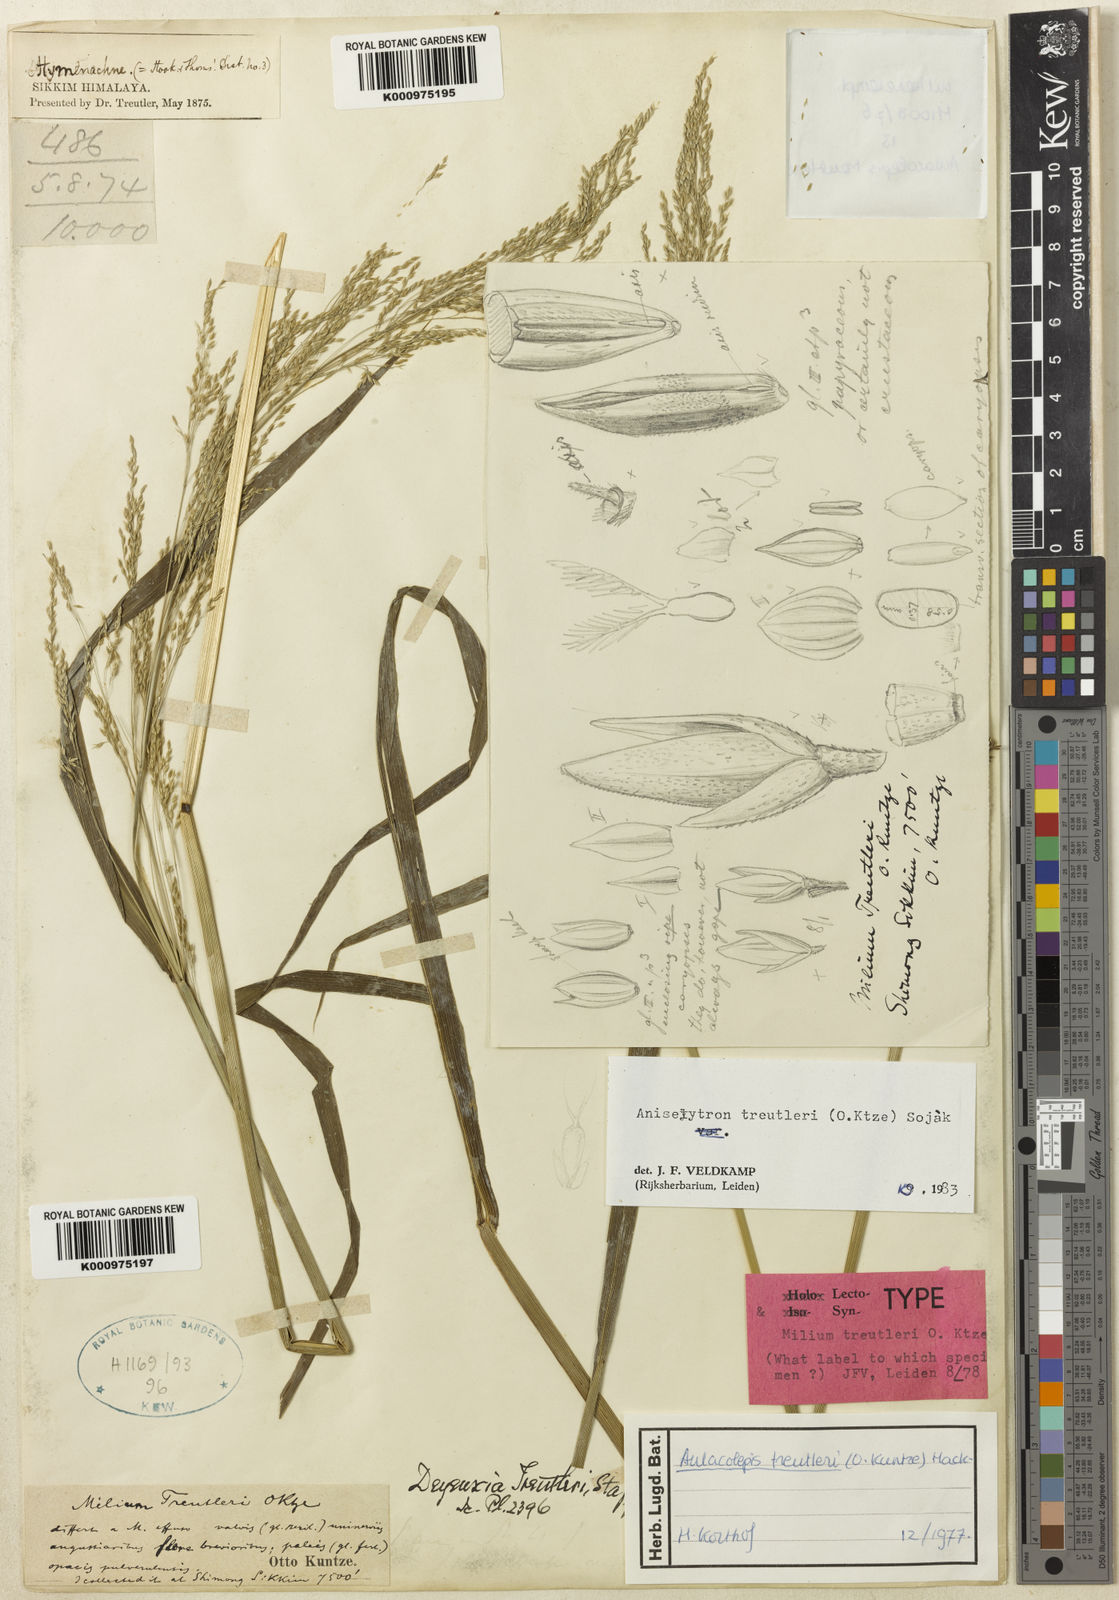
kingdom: Plantae
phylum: Tracheophyta
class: Liliopsida
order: Poales
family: Poaceae
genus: Aniselytron
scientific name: Aniselytron
